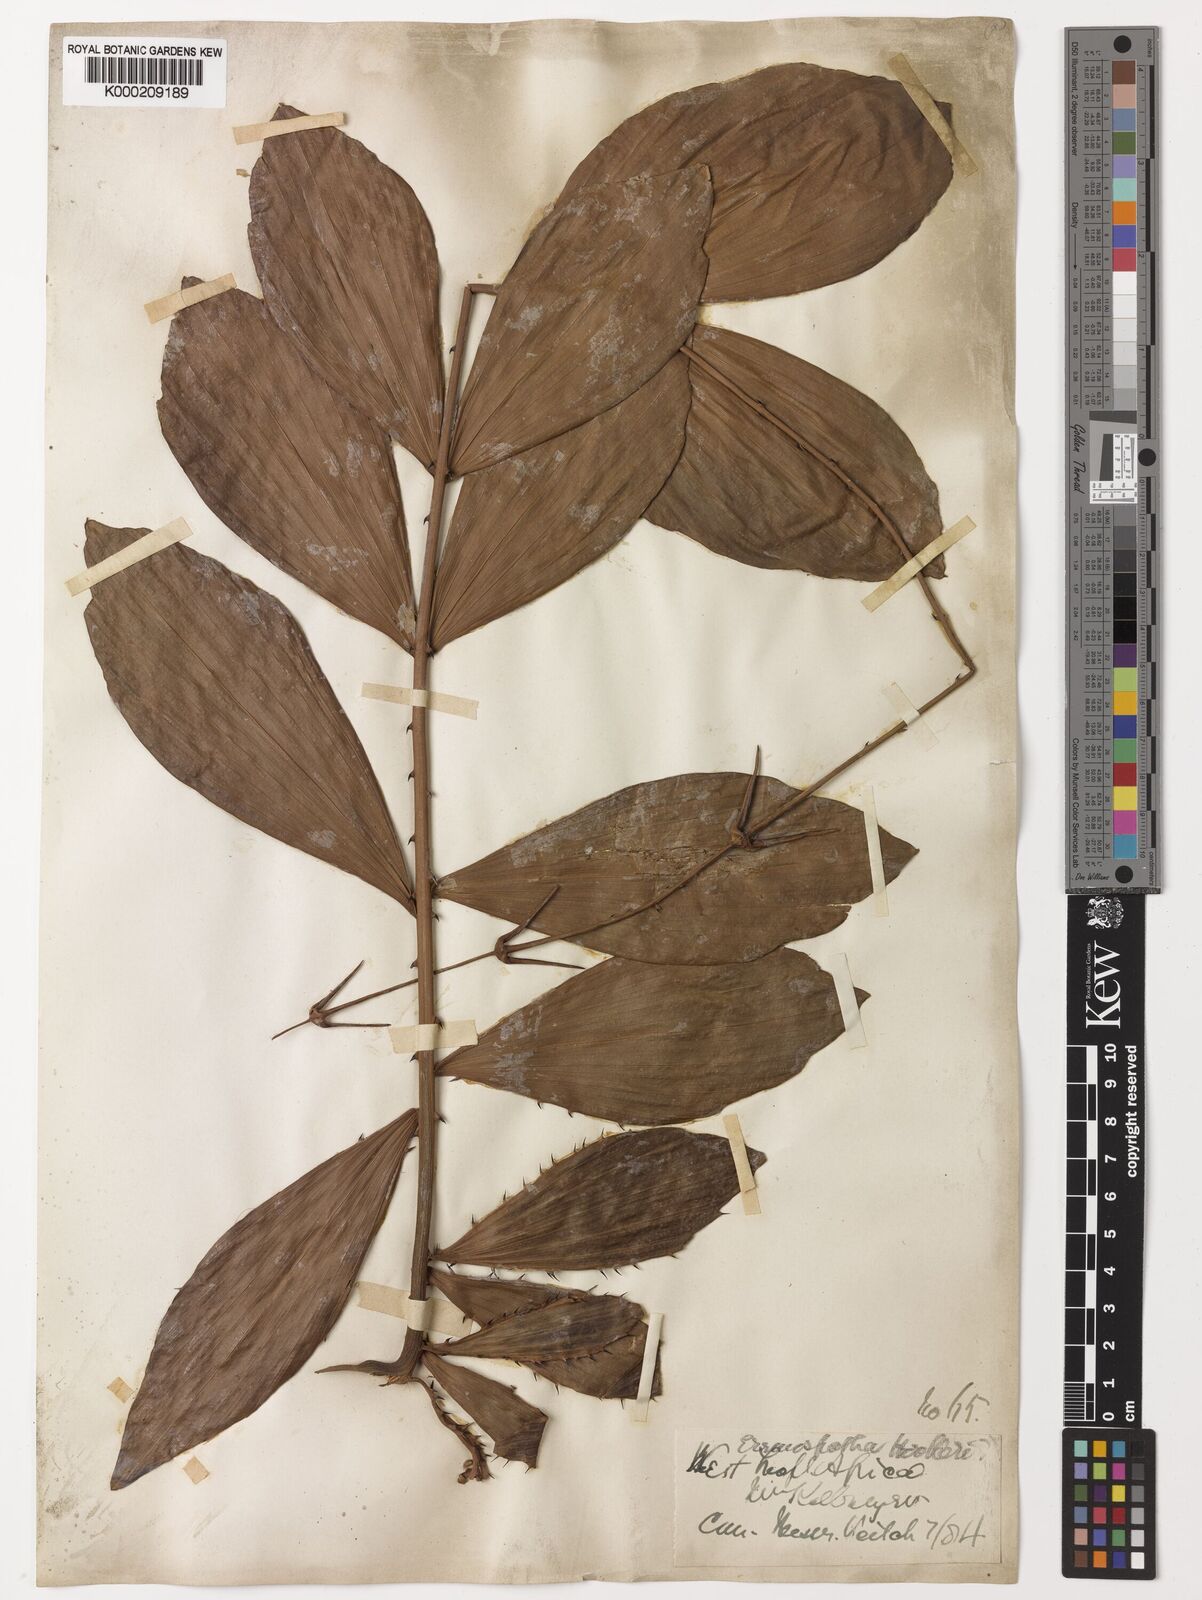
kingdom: Plantae
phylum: Tracheophyta
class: Liliopsida
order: Arecales
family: Arecaceae
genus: Eremospatha
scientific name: Eremospatha hookeri
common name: Rattan
